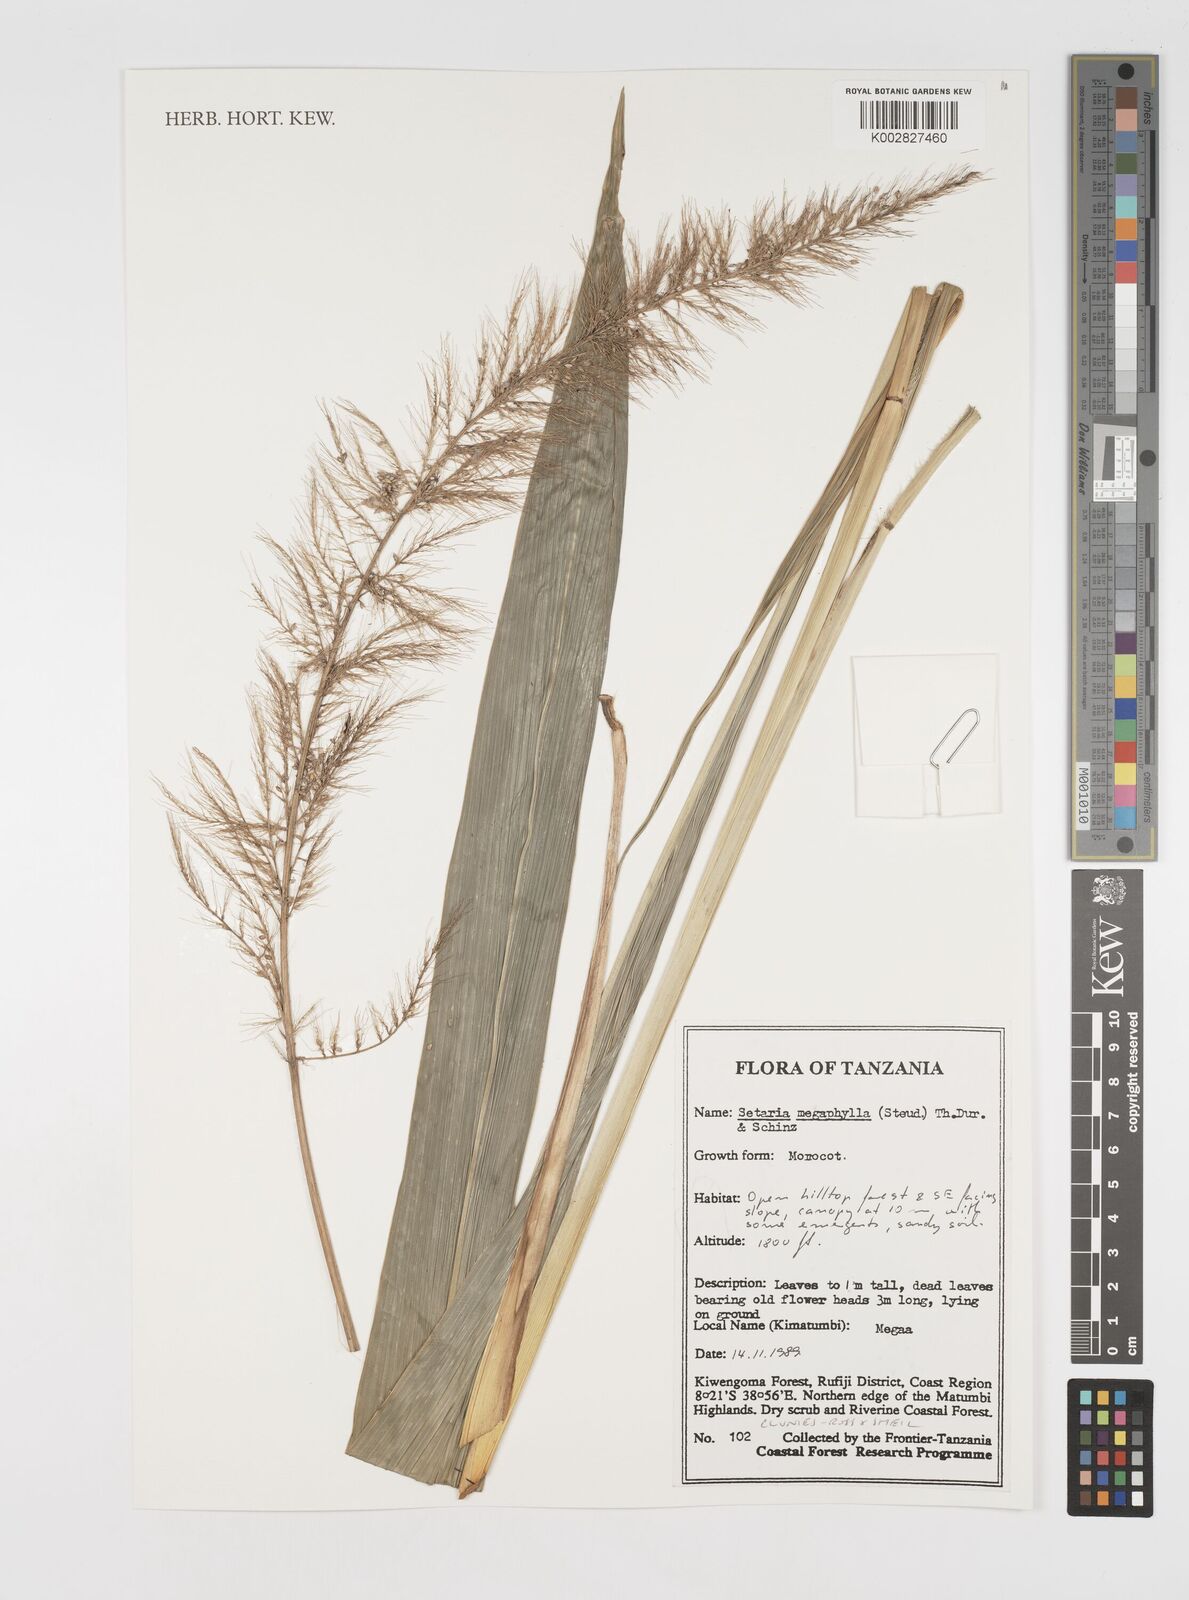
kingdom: Plantae
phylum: Tracheophyta
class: Liliopsida
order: Poales
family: Poaceae
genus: Setaria
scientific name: Setaria megaphylla
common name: Bigleaf bristlegrass
